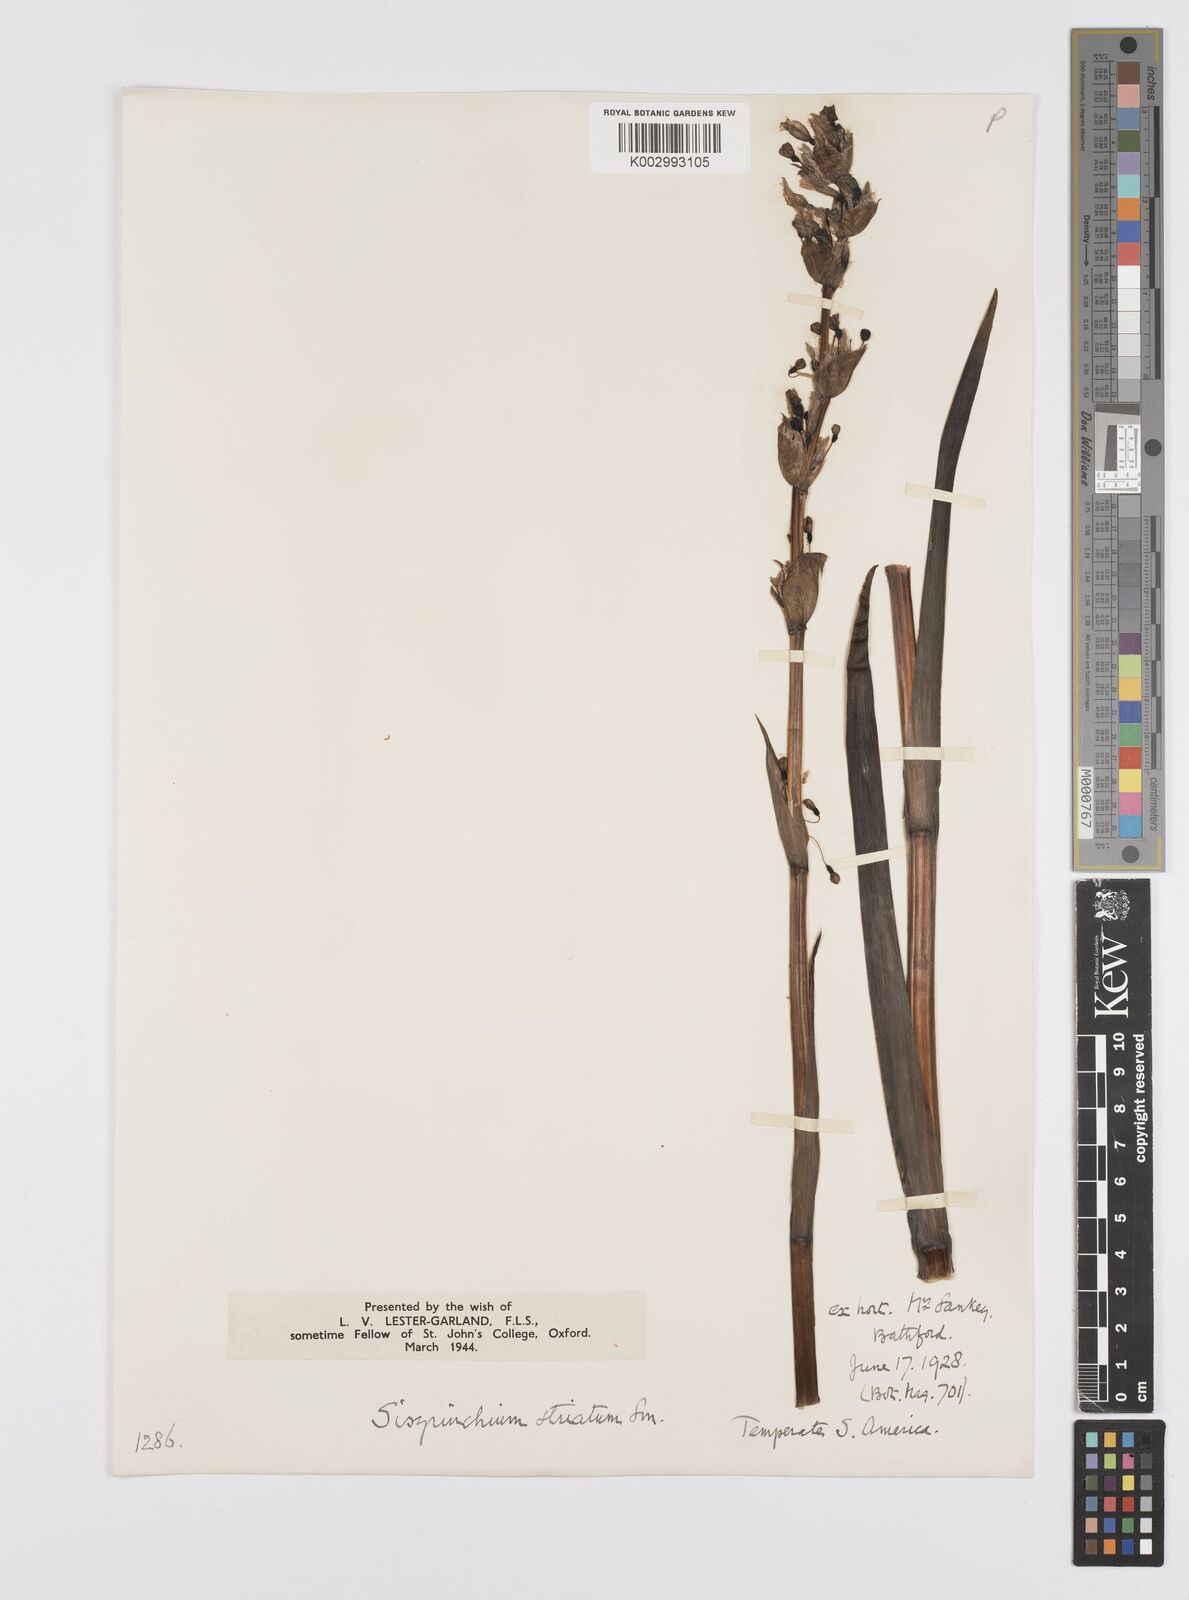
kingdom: Plantae
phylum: Tracheophyta
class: Liliopsida
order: Asparagales
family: Iridaceae
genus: Sisyrinchium
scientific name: Sisyrinchium striatum
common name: Pale yellow-eyed-grass
